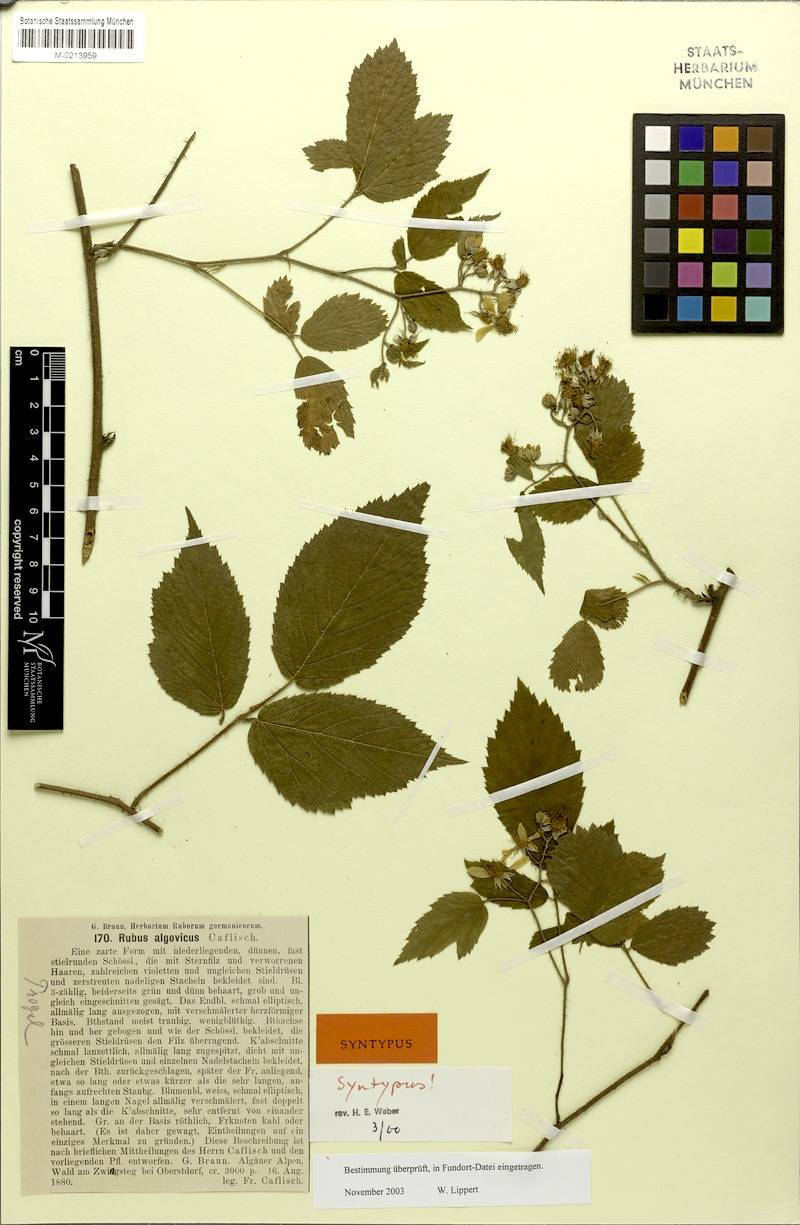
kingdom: Plantae
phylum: Tracheophyta
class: Magnoliopsida
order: Rosales
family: Rosaceae
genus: Rubus
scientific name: Rubus
